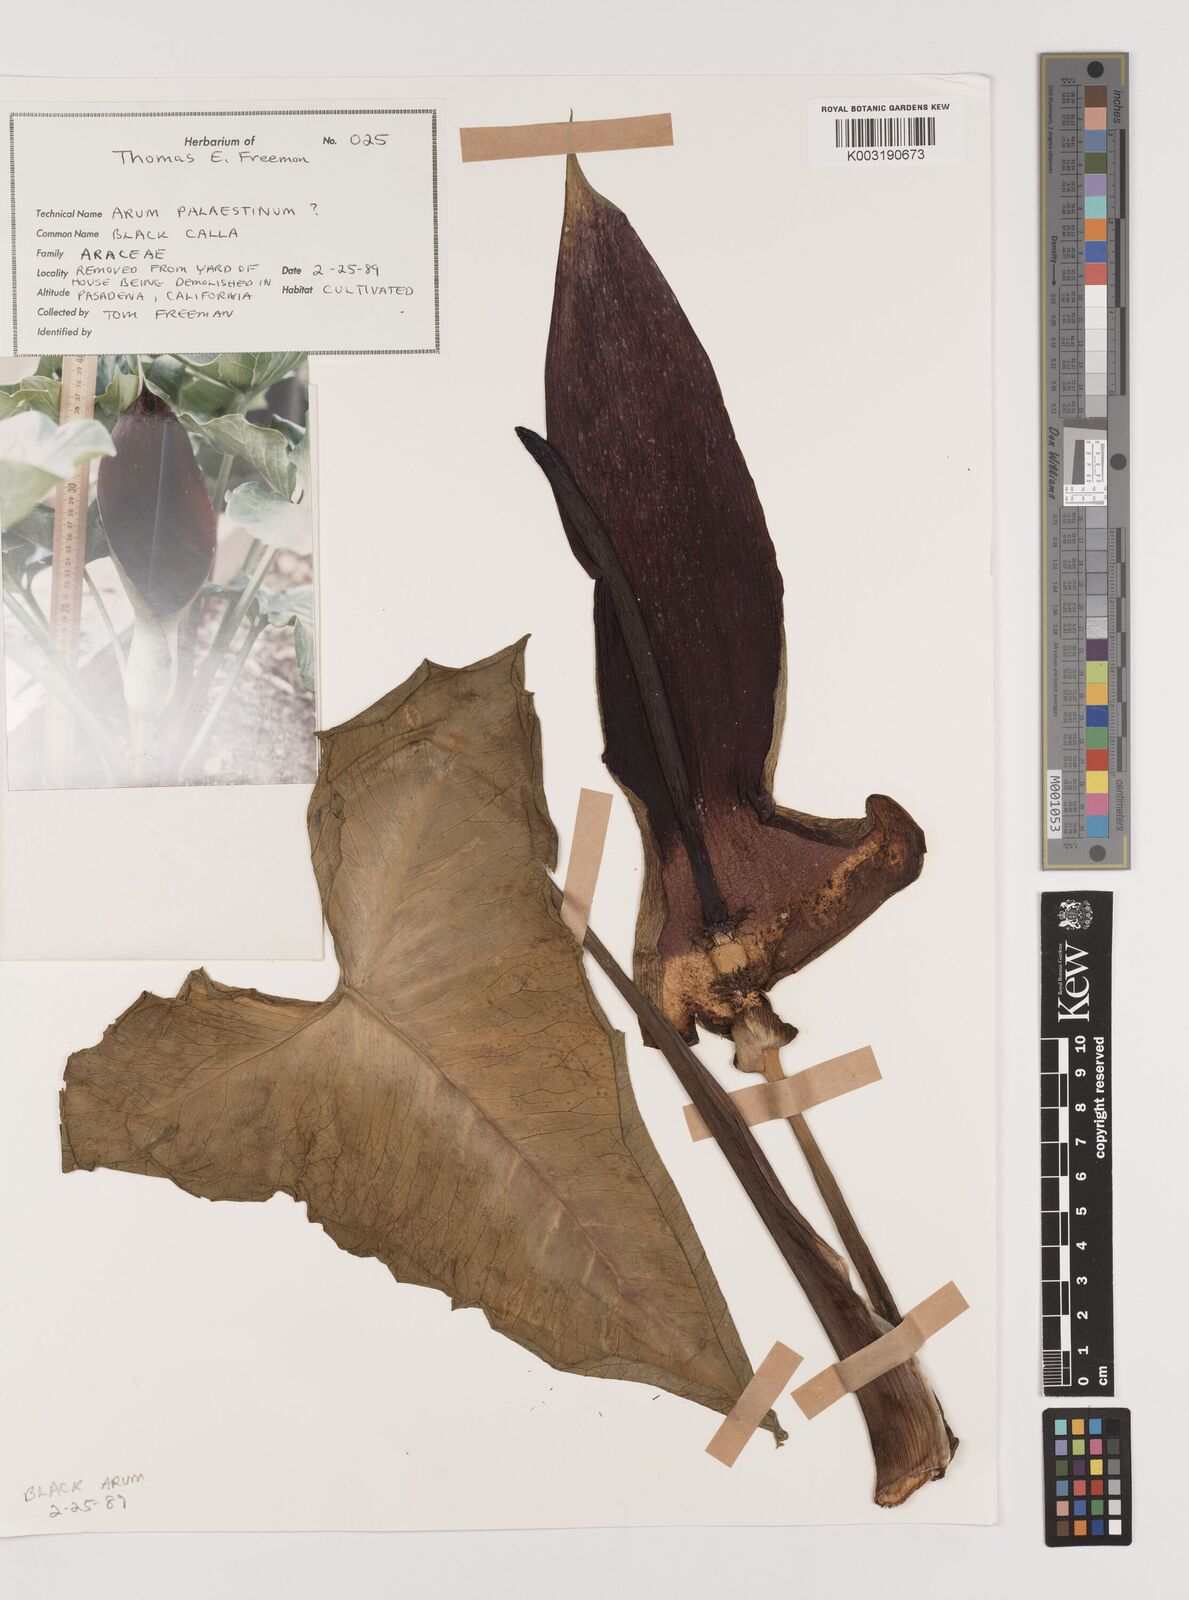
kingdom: Plantae
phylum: Tracheophyta
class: Liliopsida
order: Alismatales
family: Araceae
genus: Arum
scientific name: Arum palaestinum
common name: Solomon's lily
